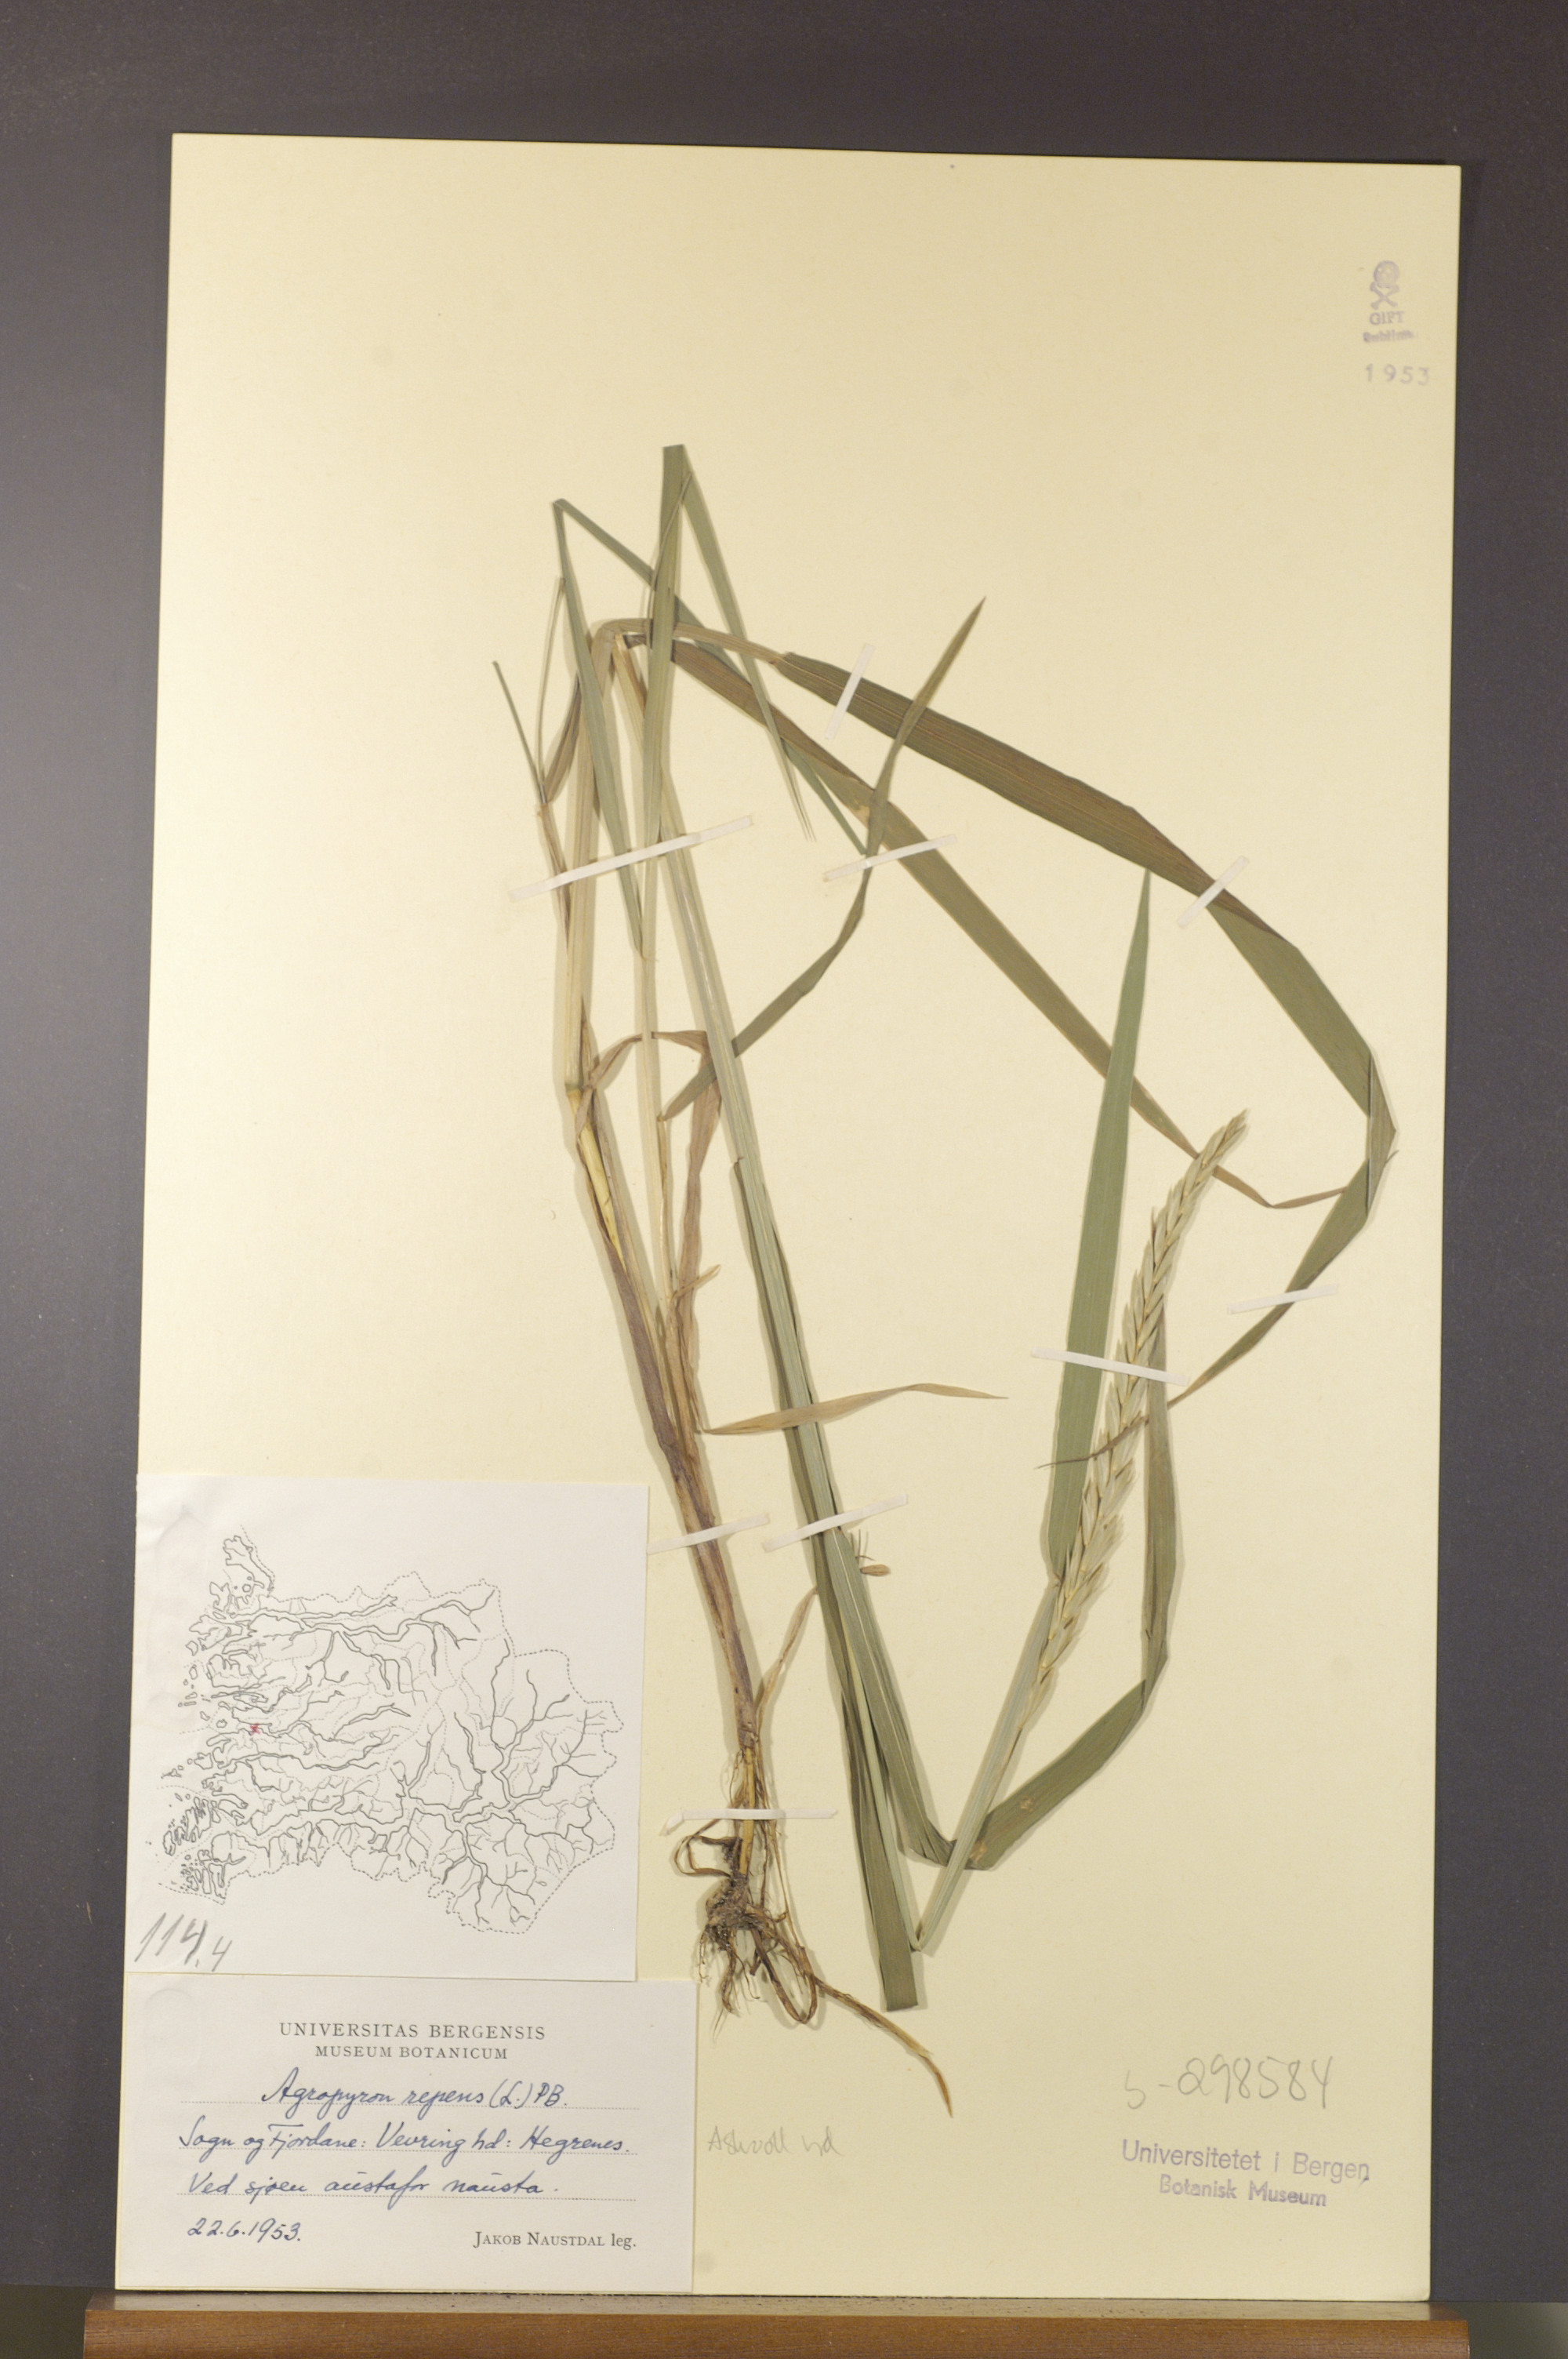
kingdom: Plantae
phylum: Tracheophyta
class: Liliopsida
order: Poales
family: Poaceae
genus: Elymus
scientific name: Elymus repens
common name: Quackgrass
